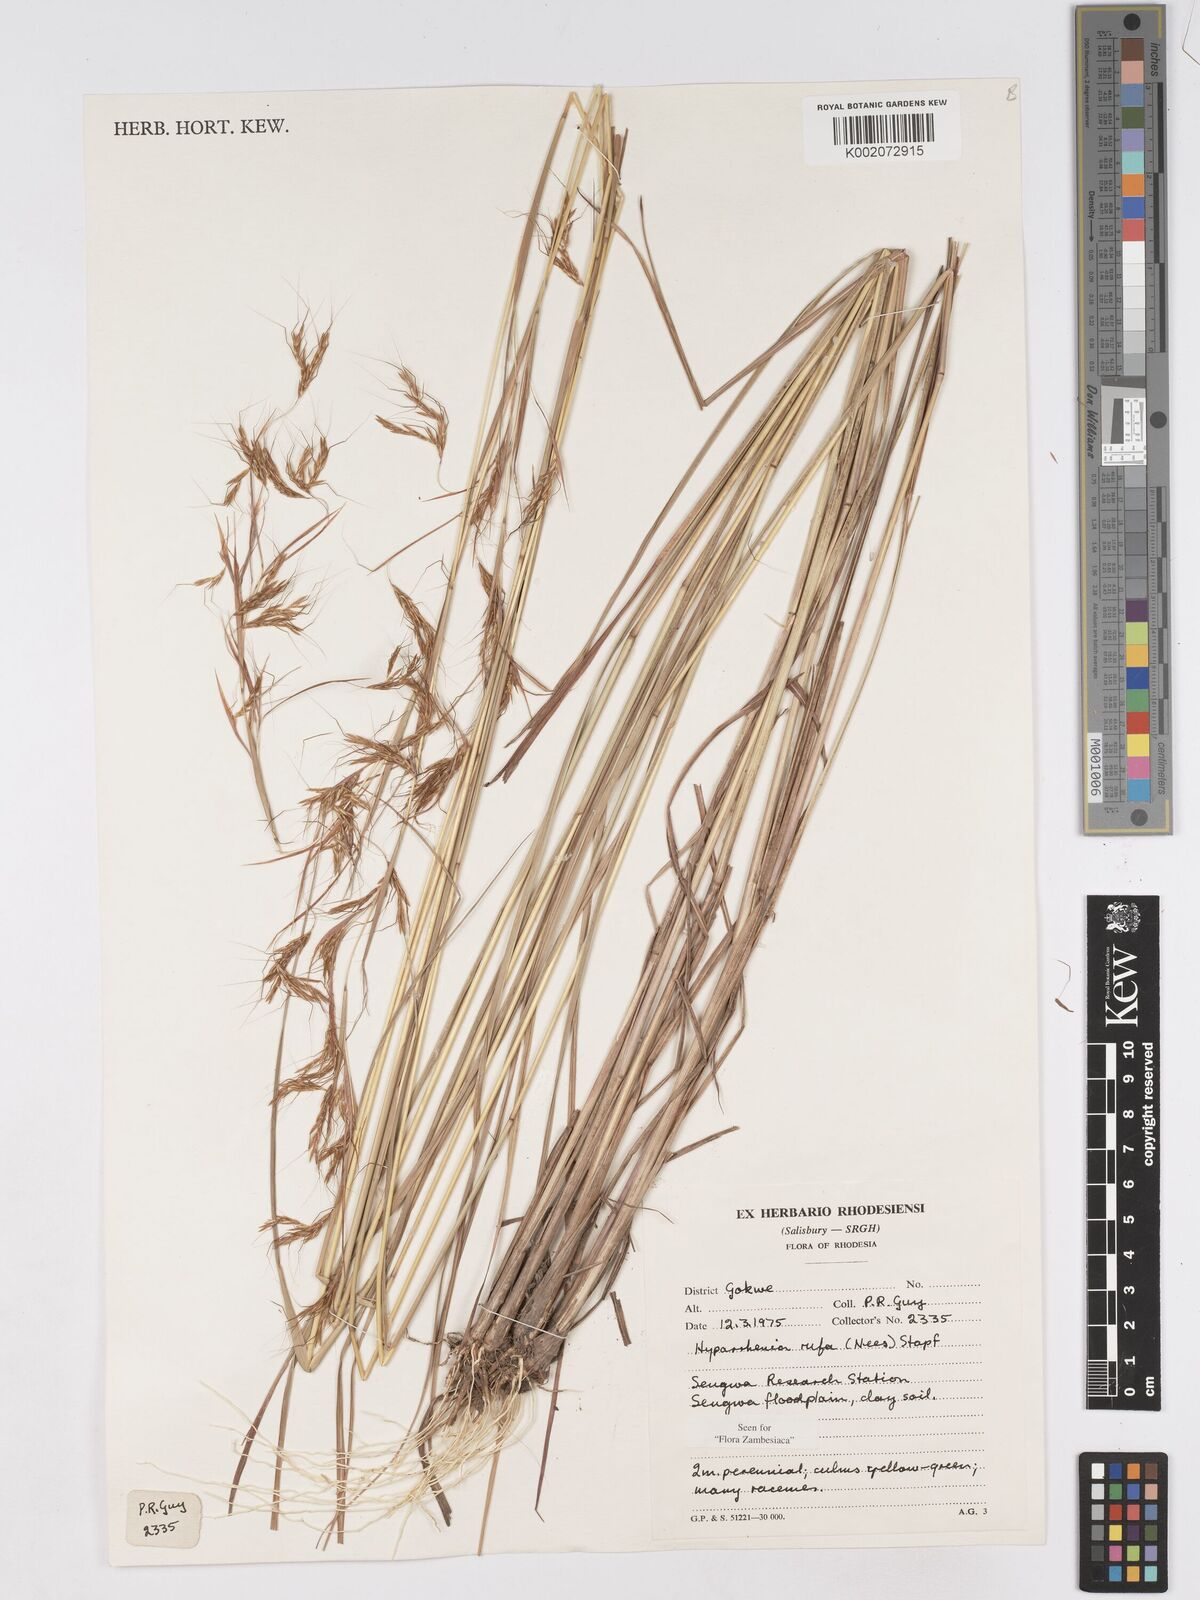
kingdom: Plantae
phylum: Tracheophyta
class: Liliopsida
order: Poales
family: Poaceae
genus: Hyparrhenia
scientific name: Hyparrhenia rufa
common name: Jaraguagrass
